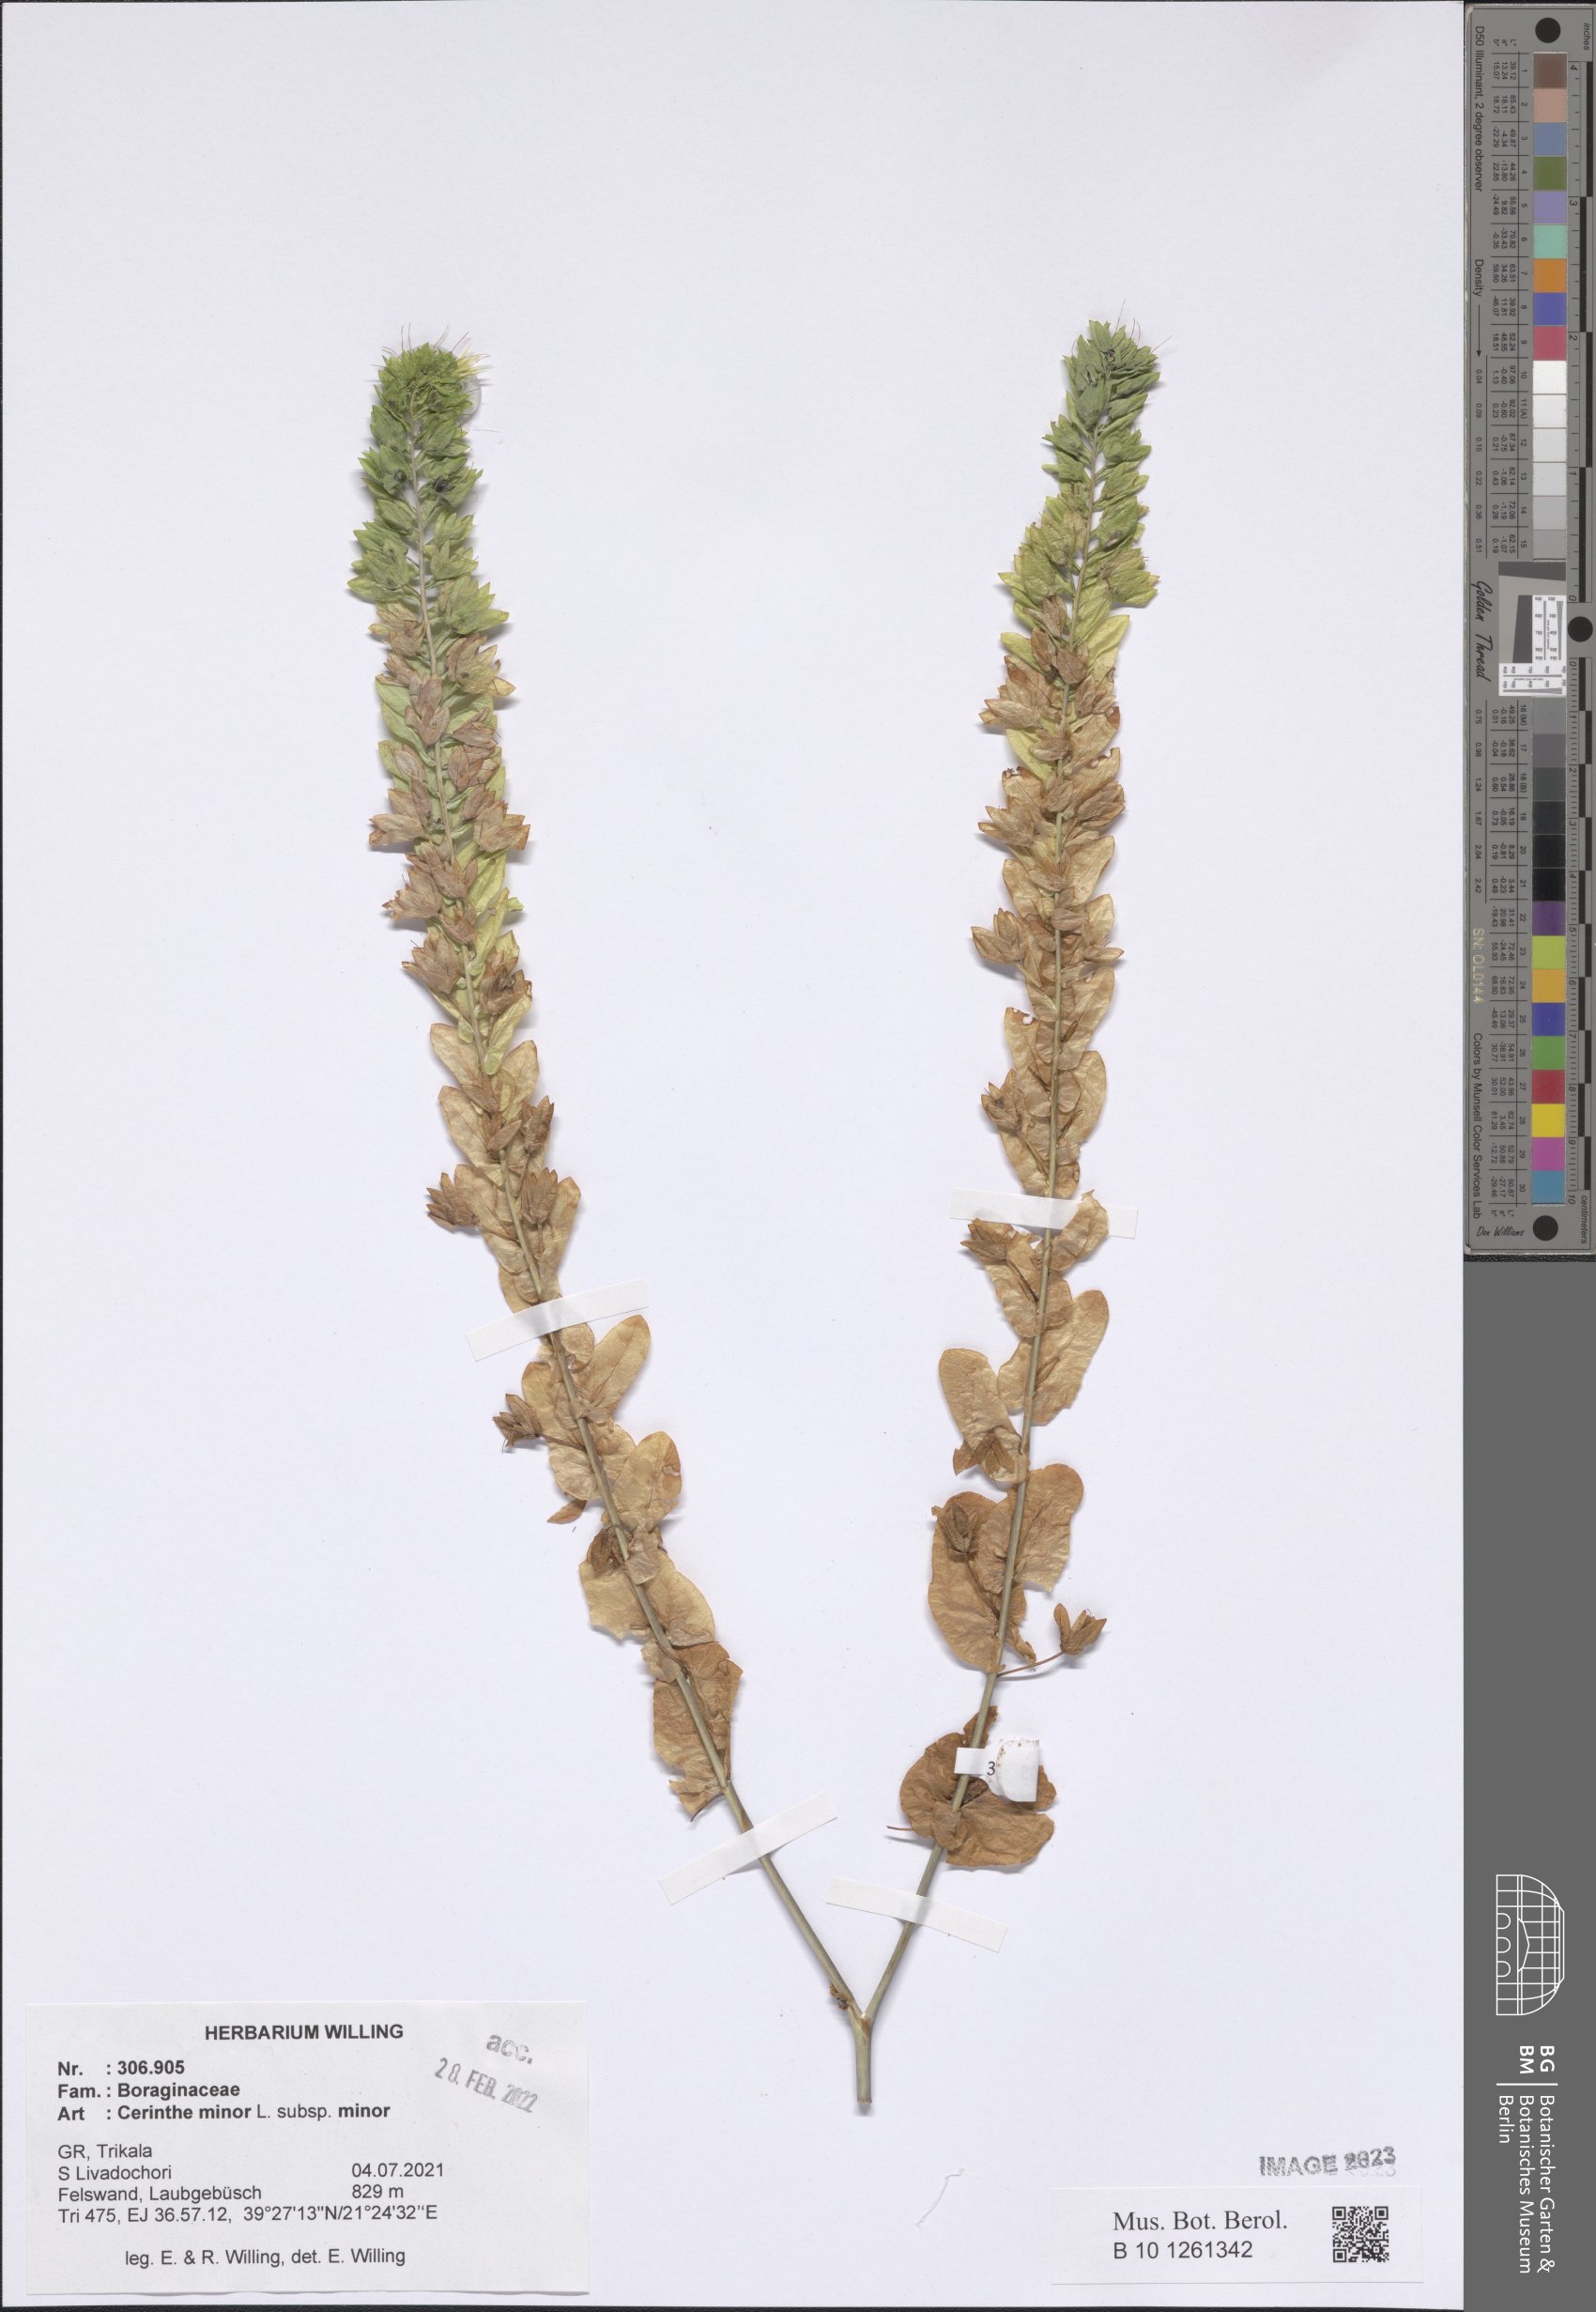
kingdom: Plantae
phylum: Tracheophyta
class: Magnoliopsida
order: Boraginales
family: Boraginaceae
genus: Cerinthe
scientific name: Cerinthe minor
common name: Lesser honeywort
